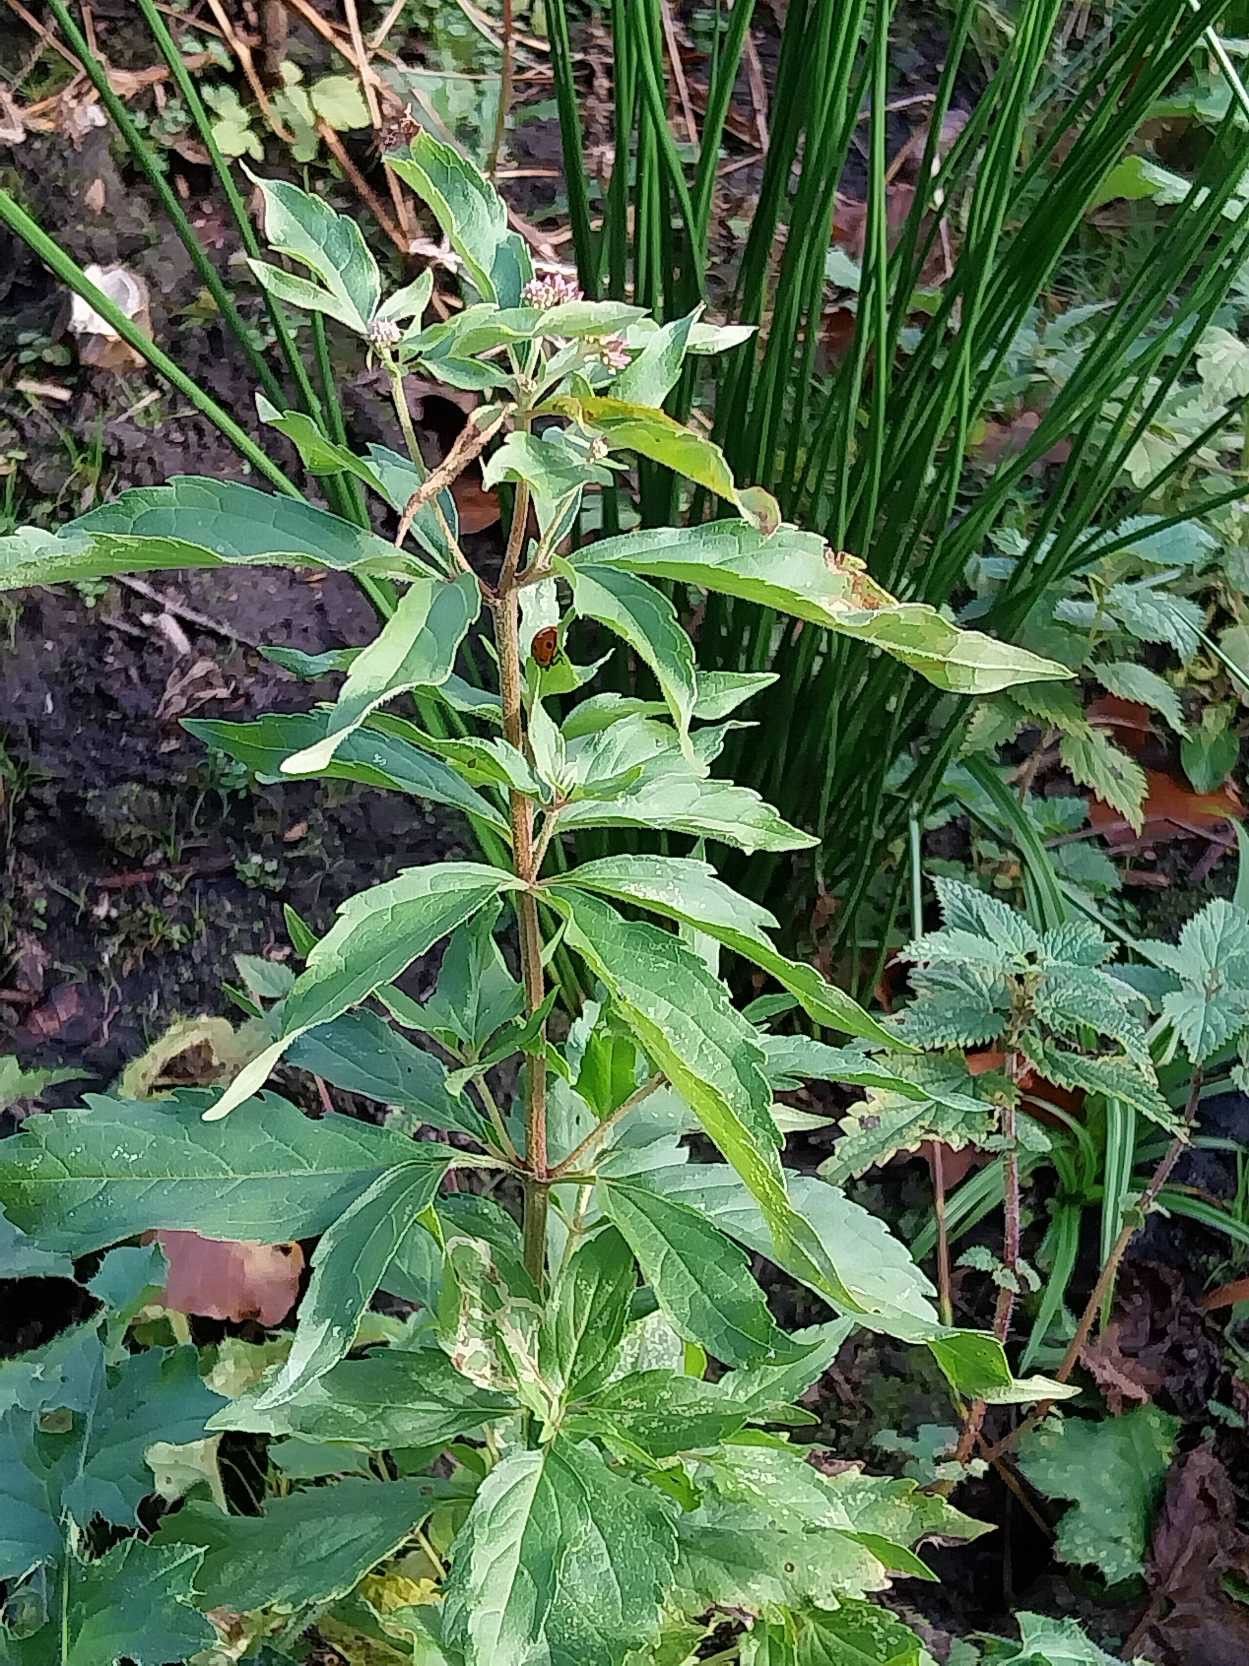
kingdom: Plantae
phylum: Tracheophyta
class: Magnoliopsida
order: Asterales
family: Asteraceae
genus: Eupatorium
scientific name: Eupatorium cannabinum
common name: Hjortetrøst
